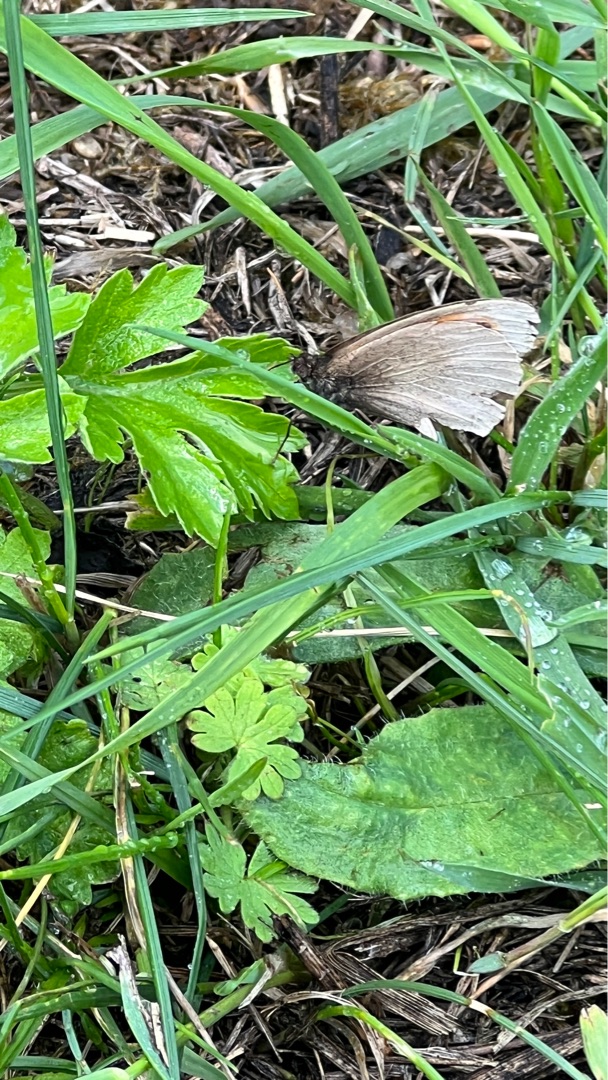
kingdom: Animalia
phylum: Arthropoda
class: Insecta
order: Lepidoptera
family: Nymphalidae
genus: Maniola
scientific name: Maniola jurtina
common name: Græsrandøje
